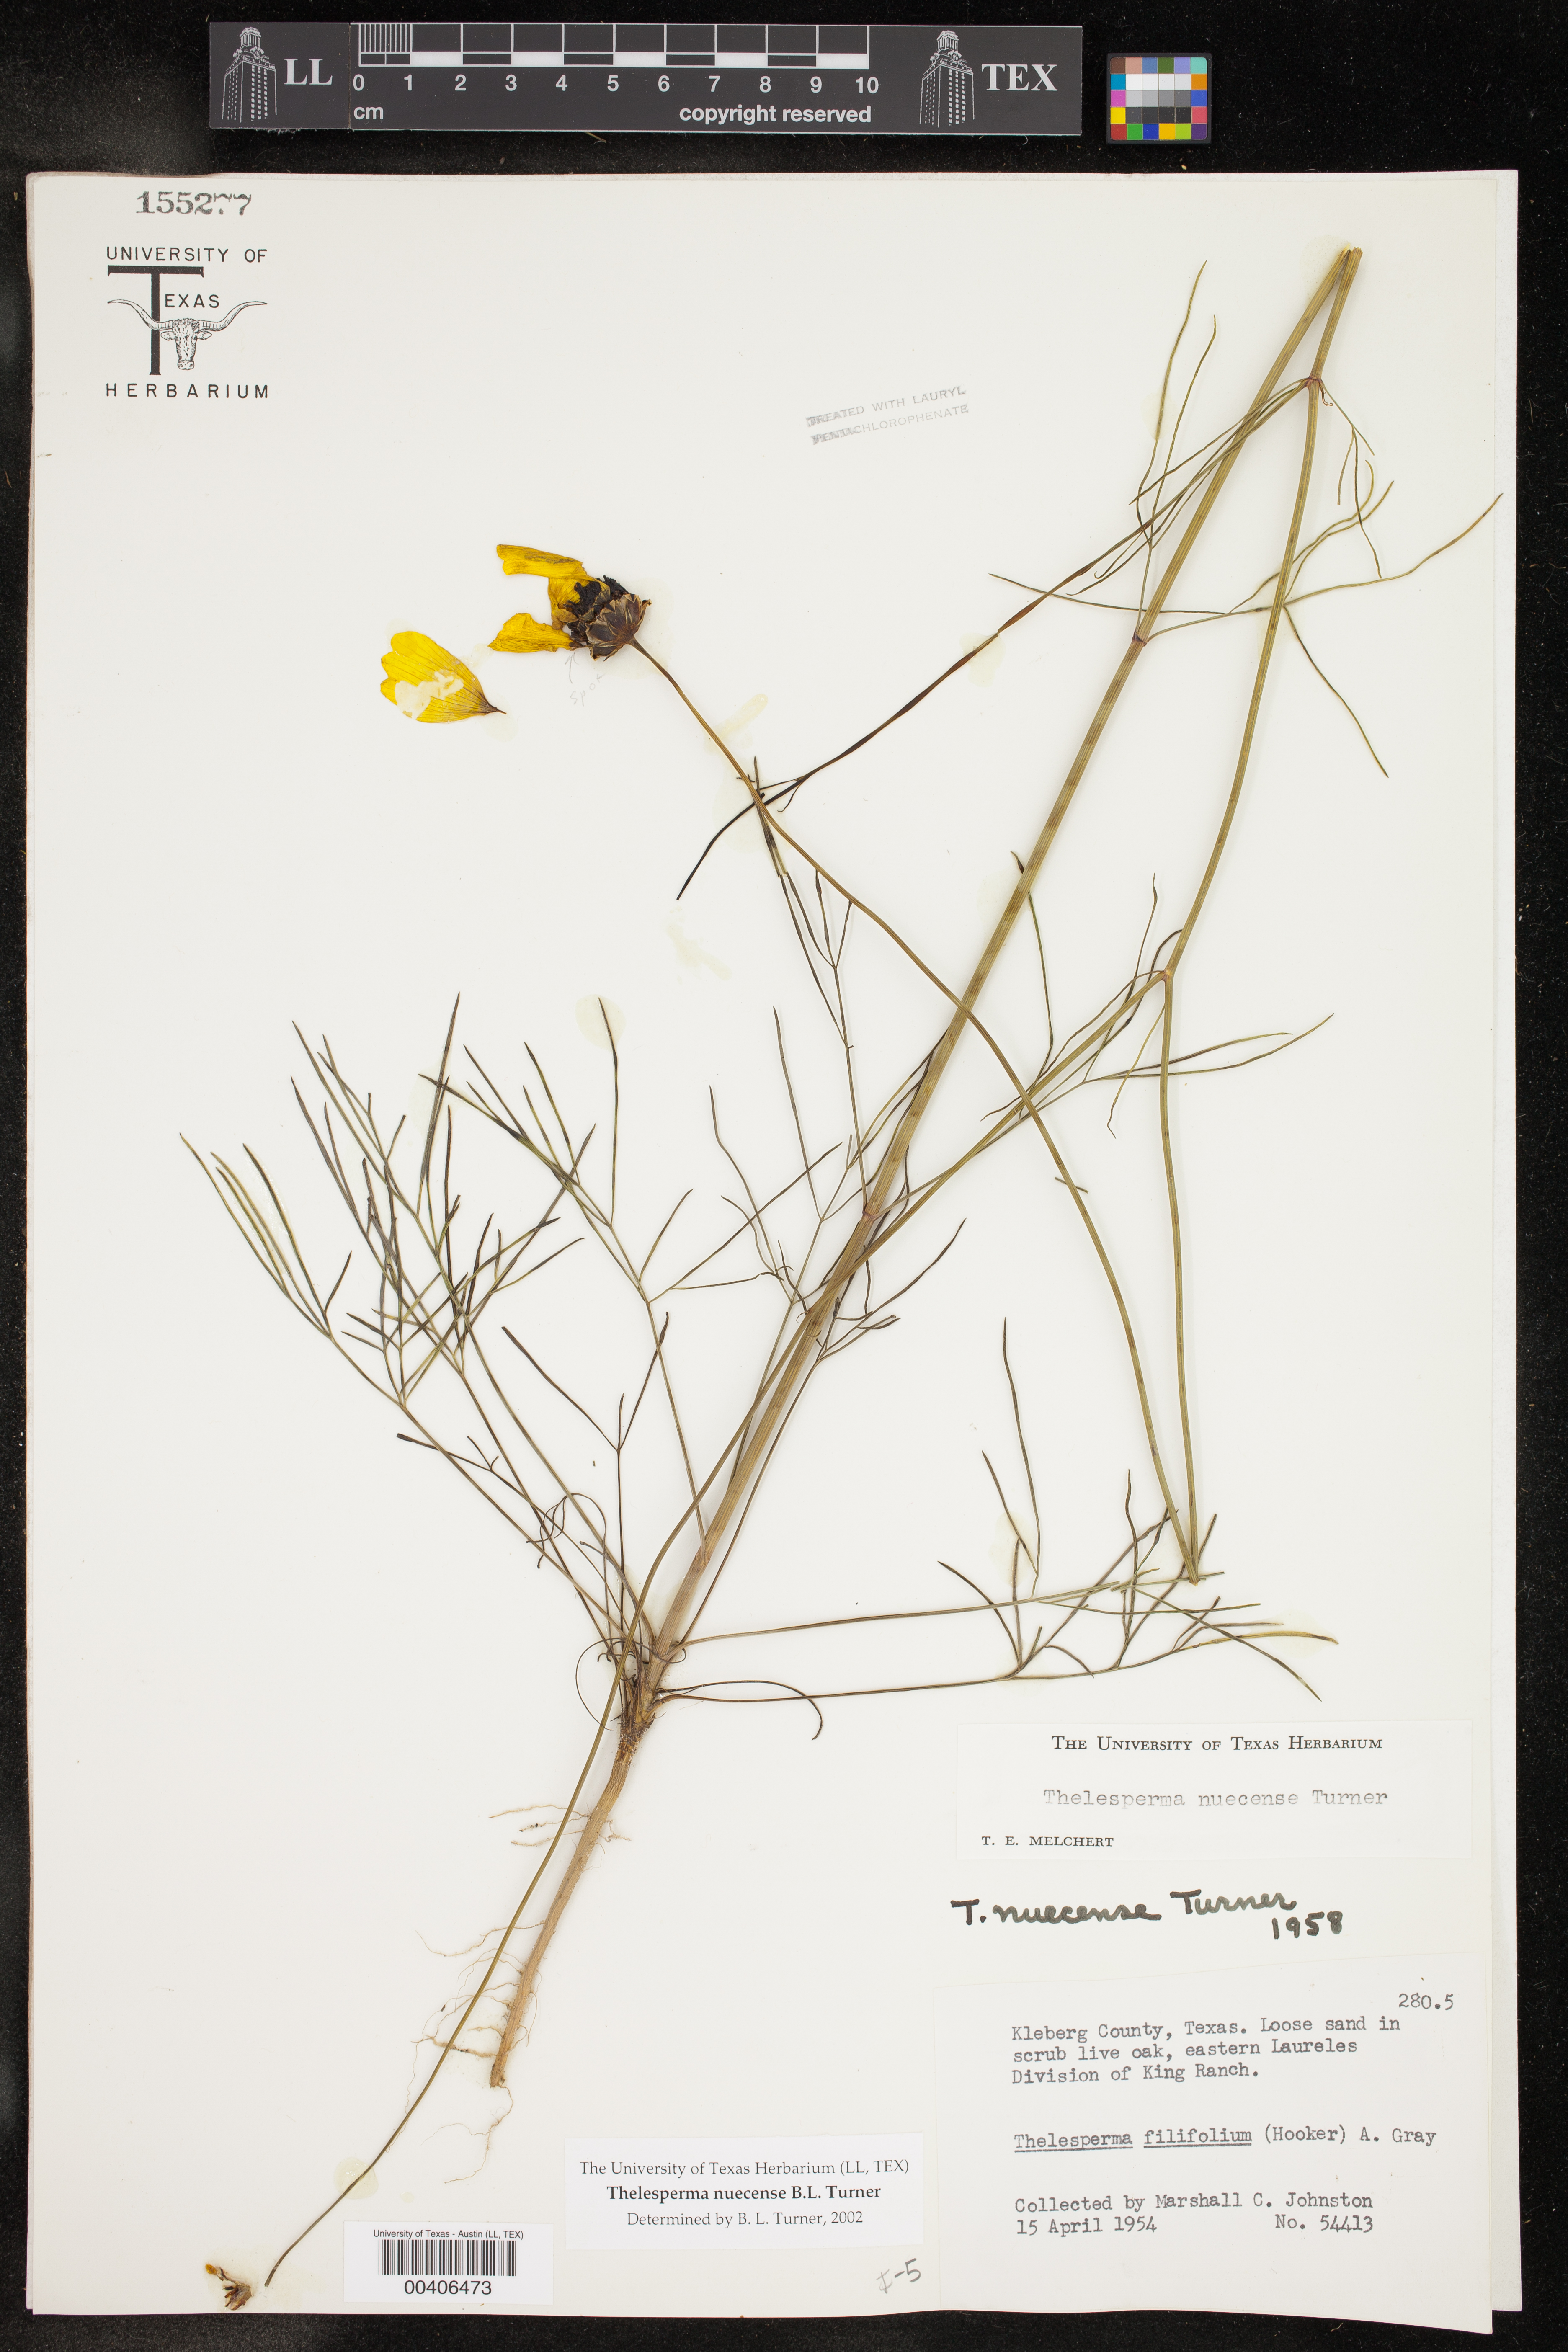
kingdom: Plantae
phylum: Tracheophyta
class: Magnoliopsida
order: Asterales
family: Asteraceae
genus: Thelesperma
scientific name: Thelesperma nuecense
